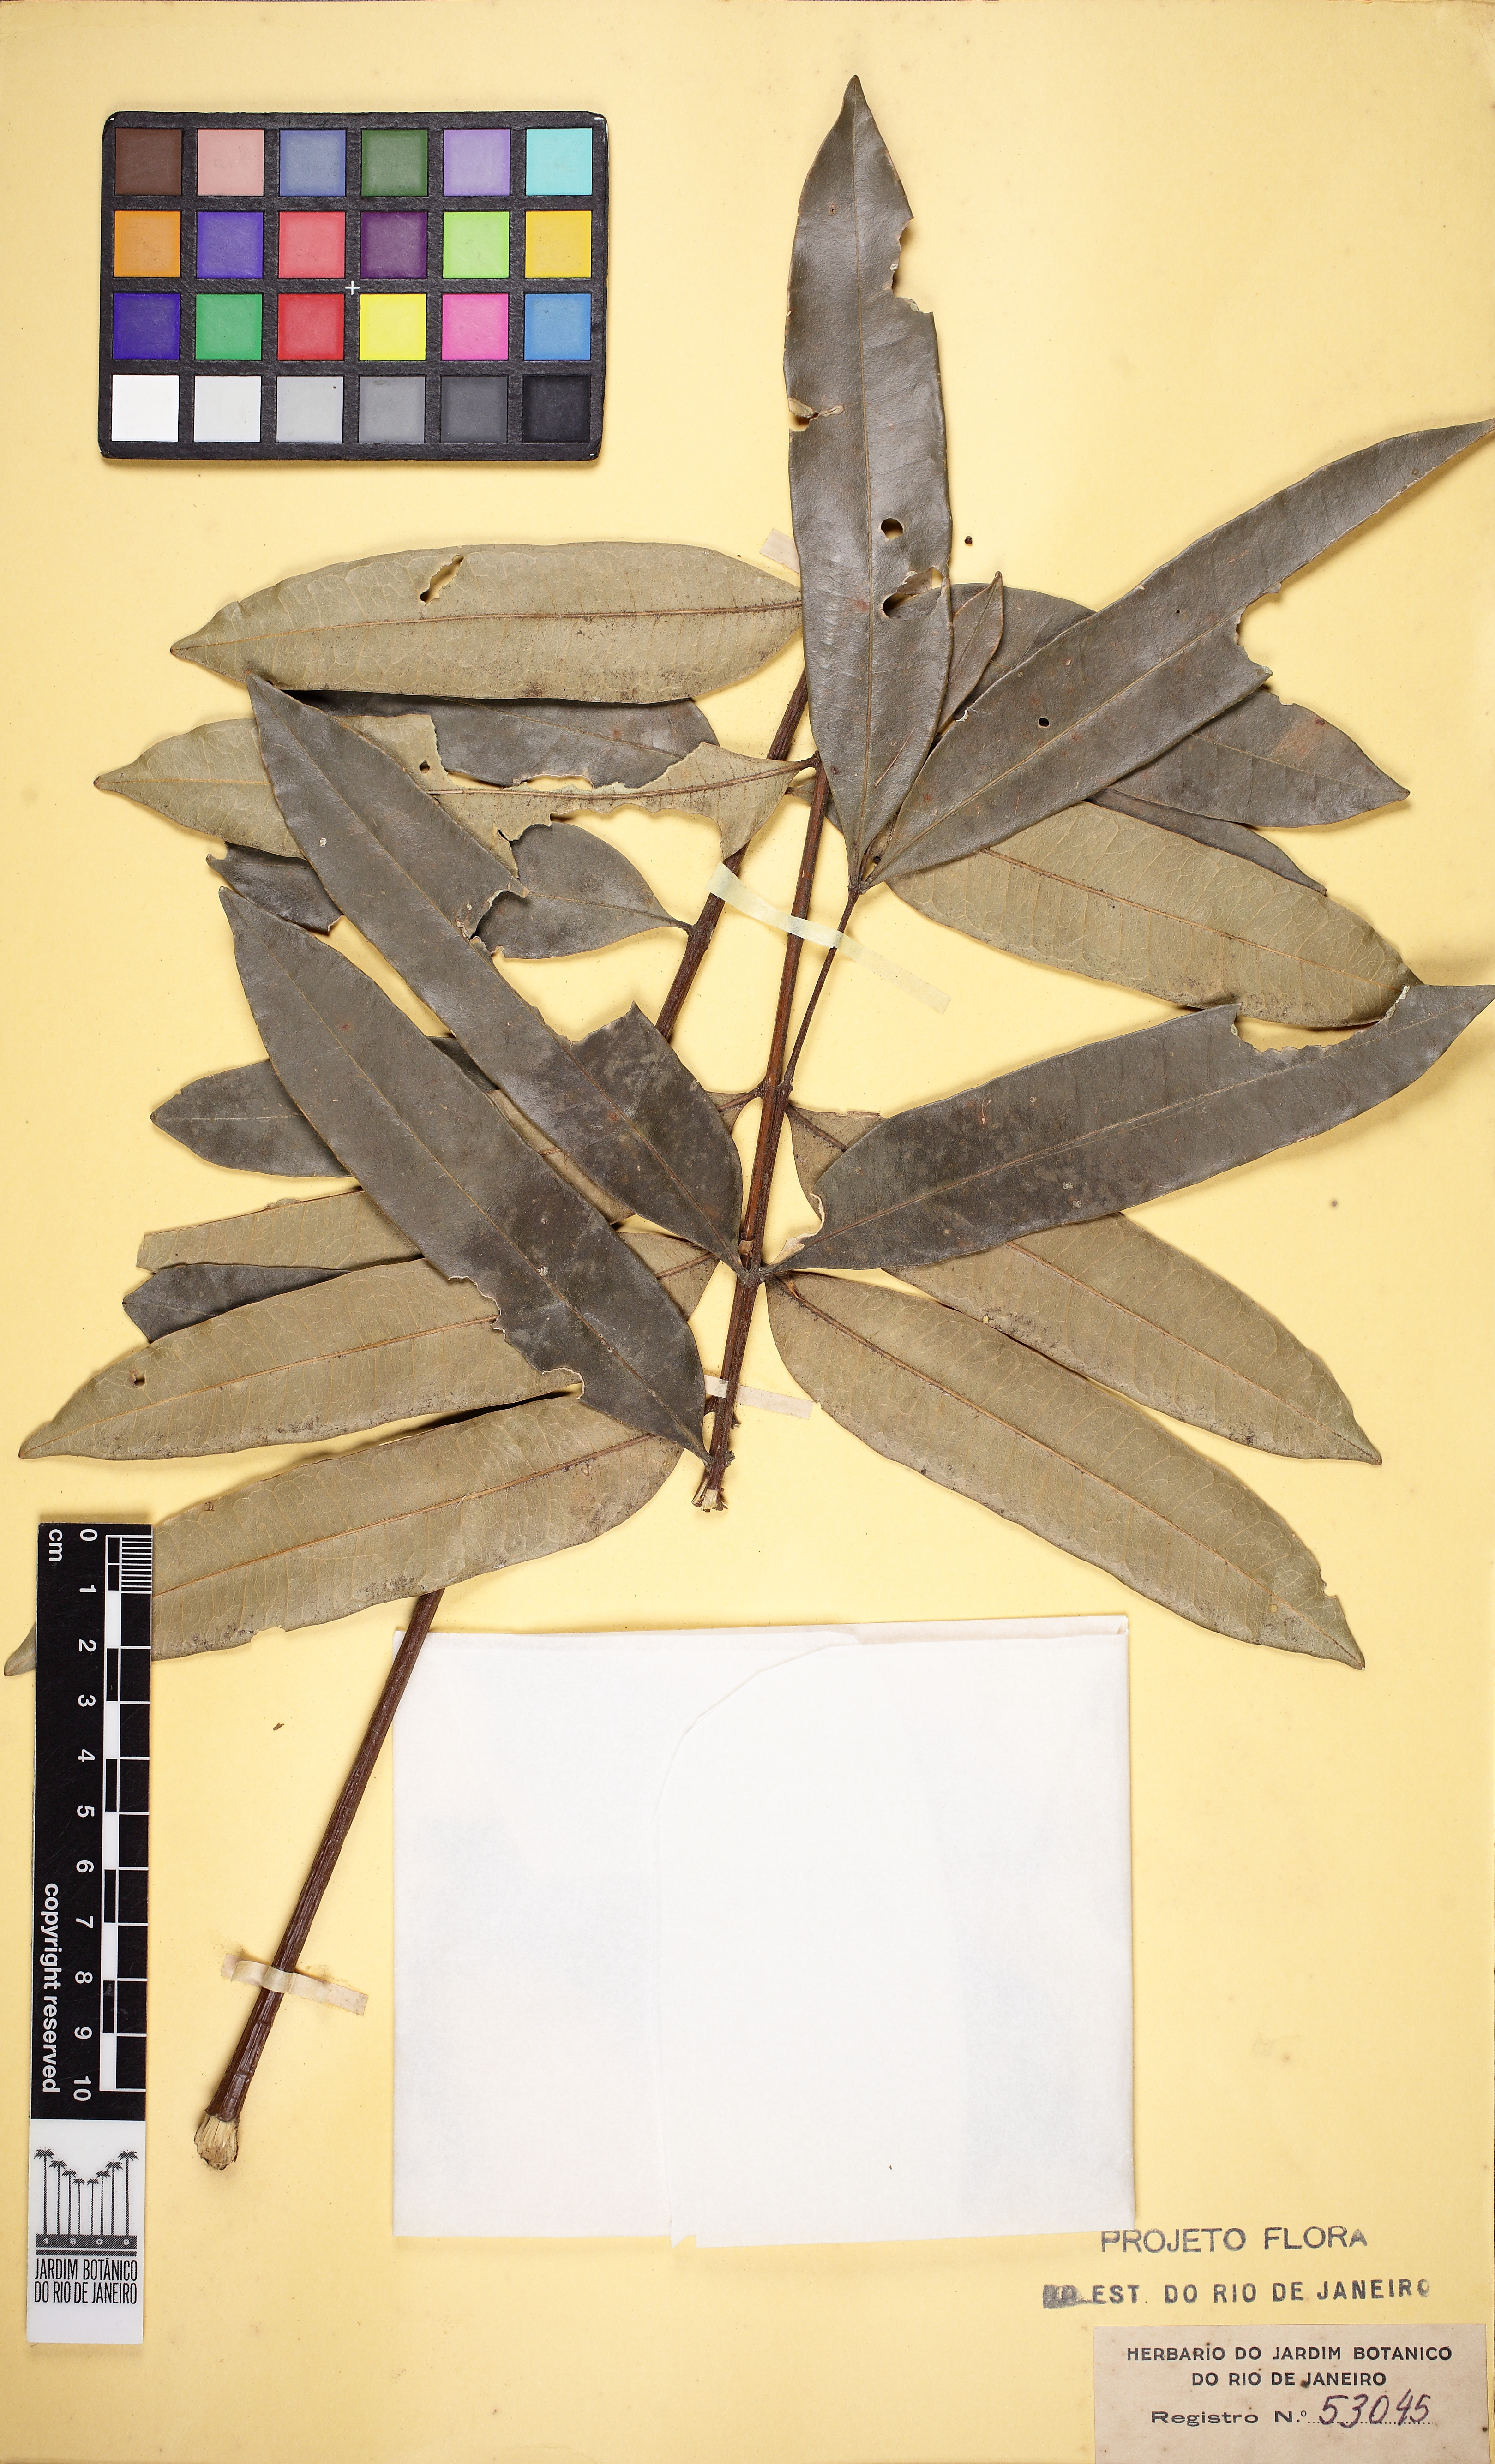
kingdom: Plantae
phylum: Tracheophyta
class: Magnoliopsida
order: Sapindales
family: Simaroubaceae
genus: Homalolepis
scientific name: Homalolepis insignis
